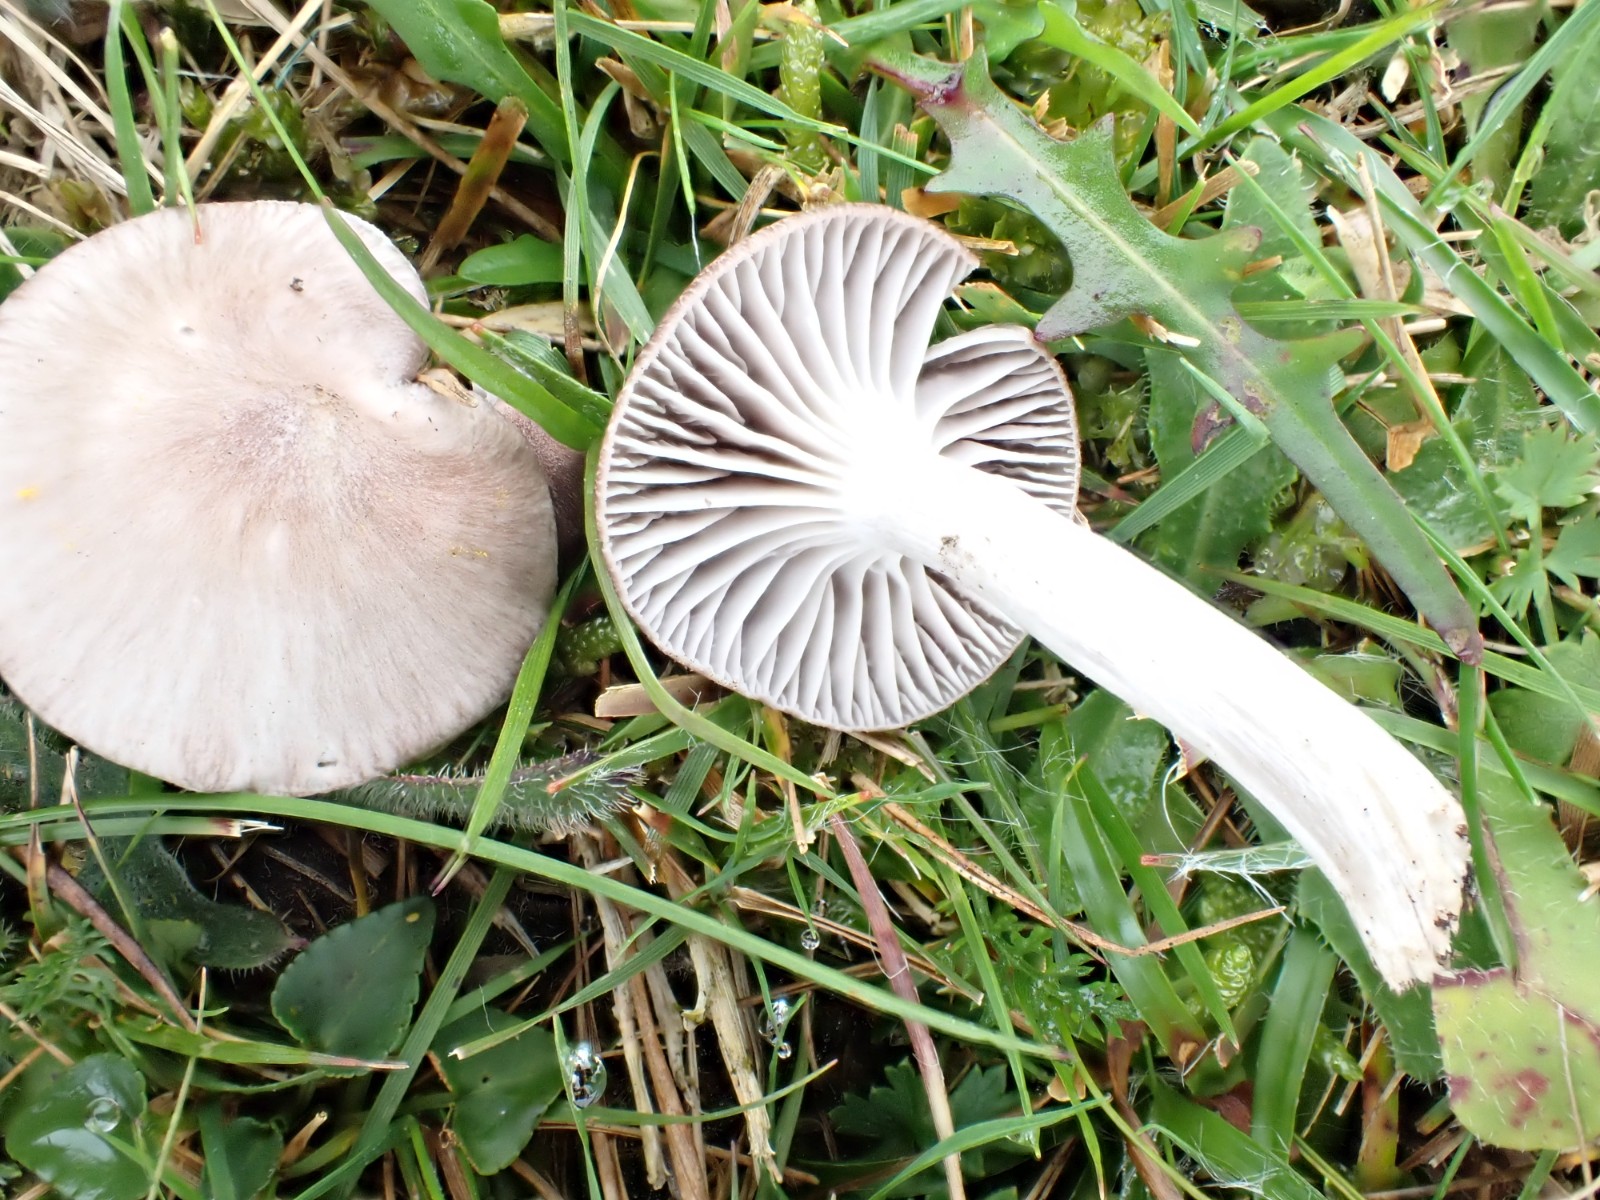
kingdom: Fungi
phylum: Basidiomycota
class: Agaricomycetes
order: Agaricales
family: Hygrophoraceae
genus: Cuphophyllus
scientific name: Cuphophyllus flavipes
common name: gulfodet vokshat
